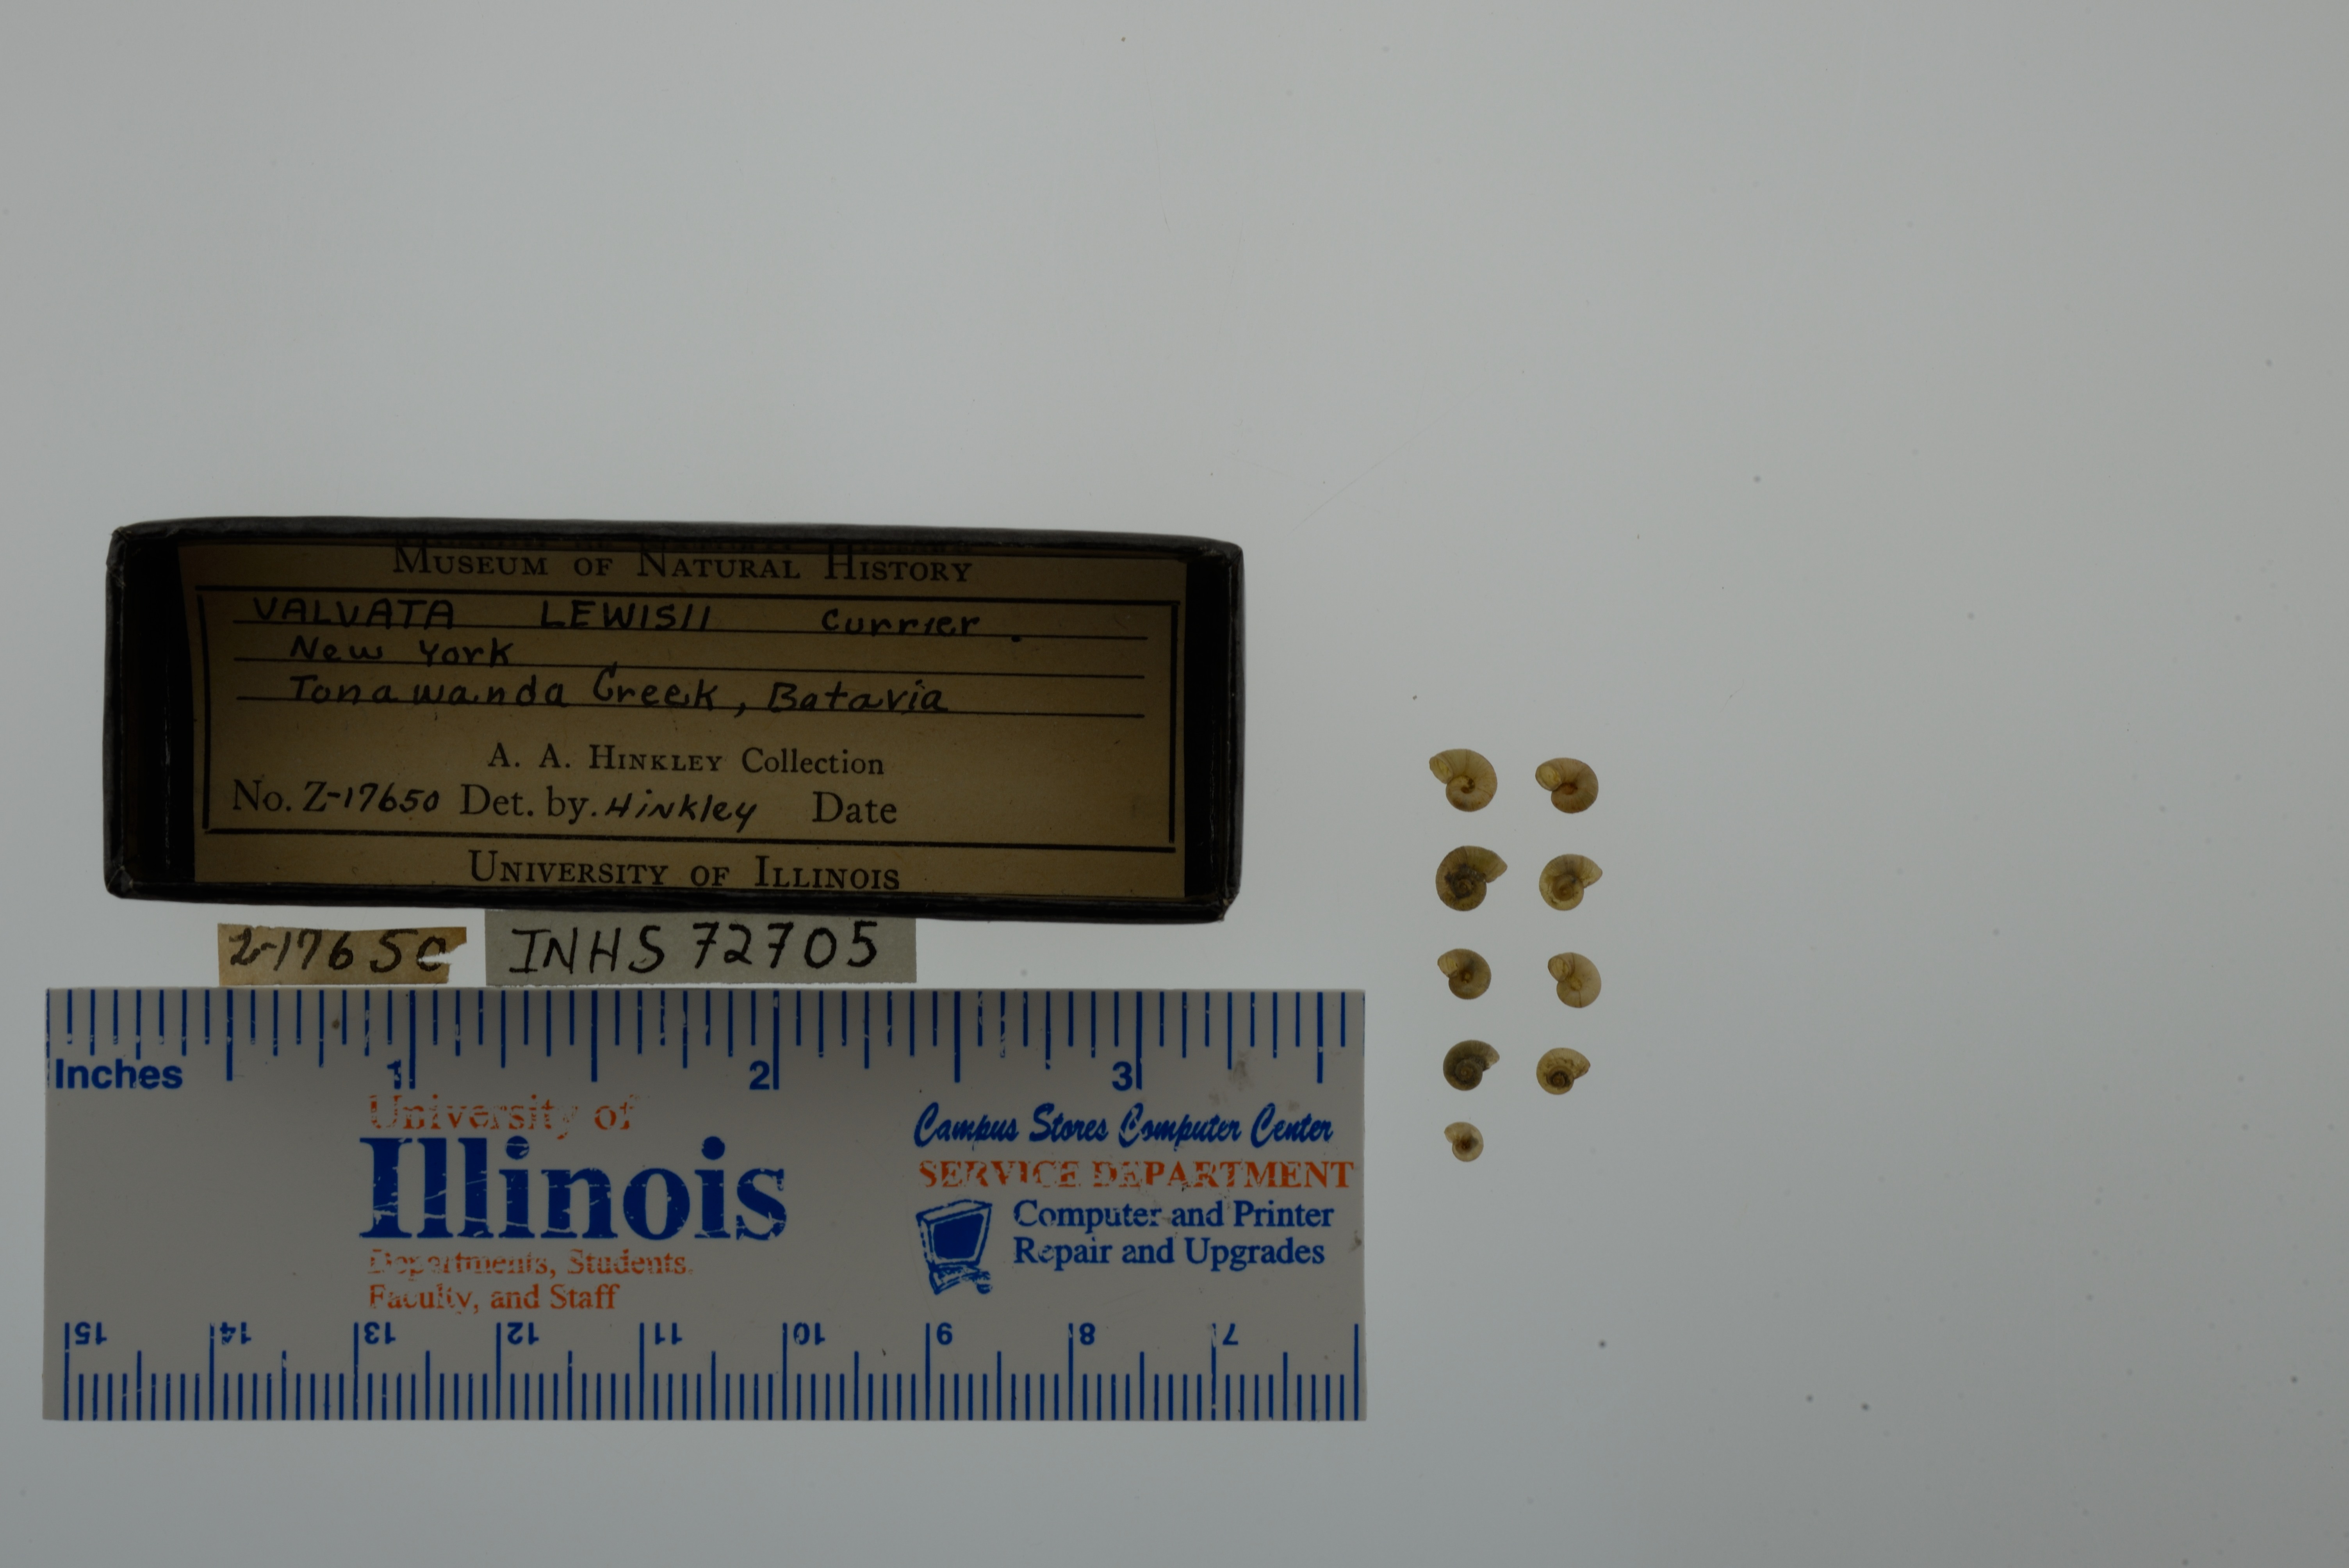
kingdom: Animalia
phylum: Mollusca
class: Gastropoda
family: Valvatidae
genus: Valvata
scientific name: Valvata lewisi
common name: Fringed valvata
